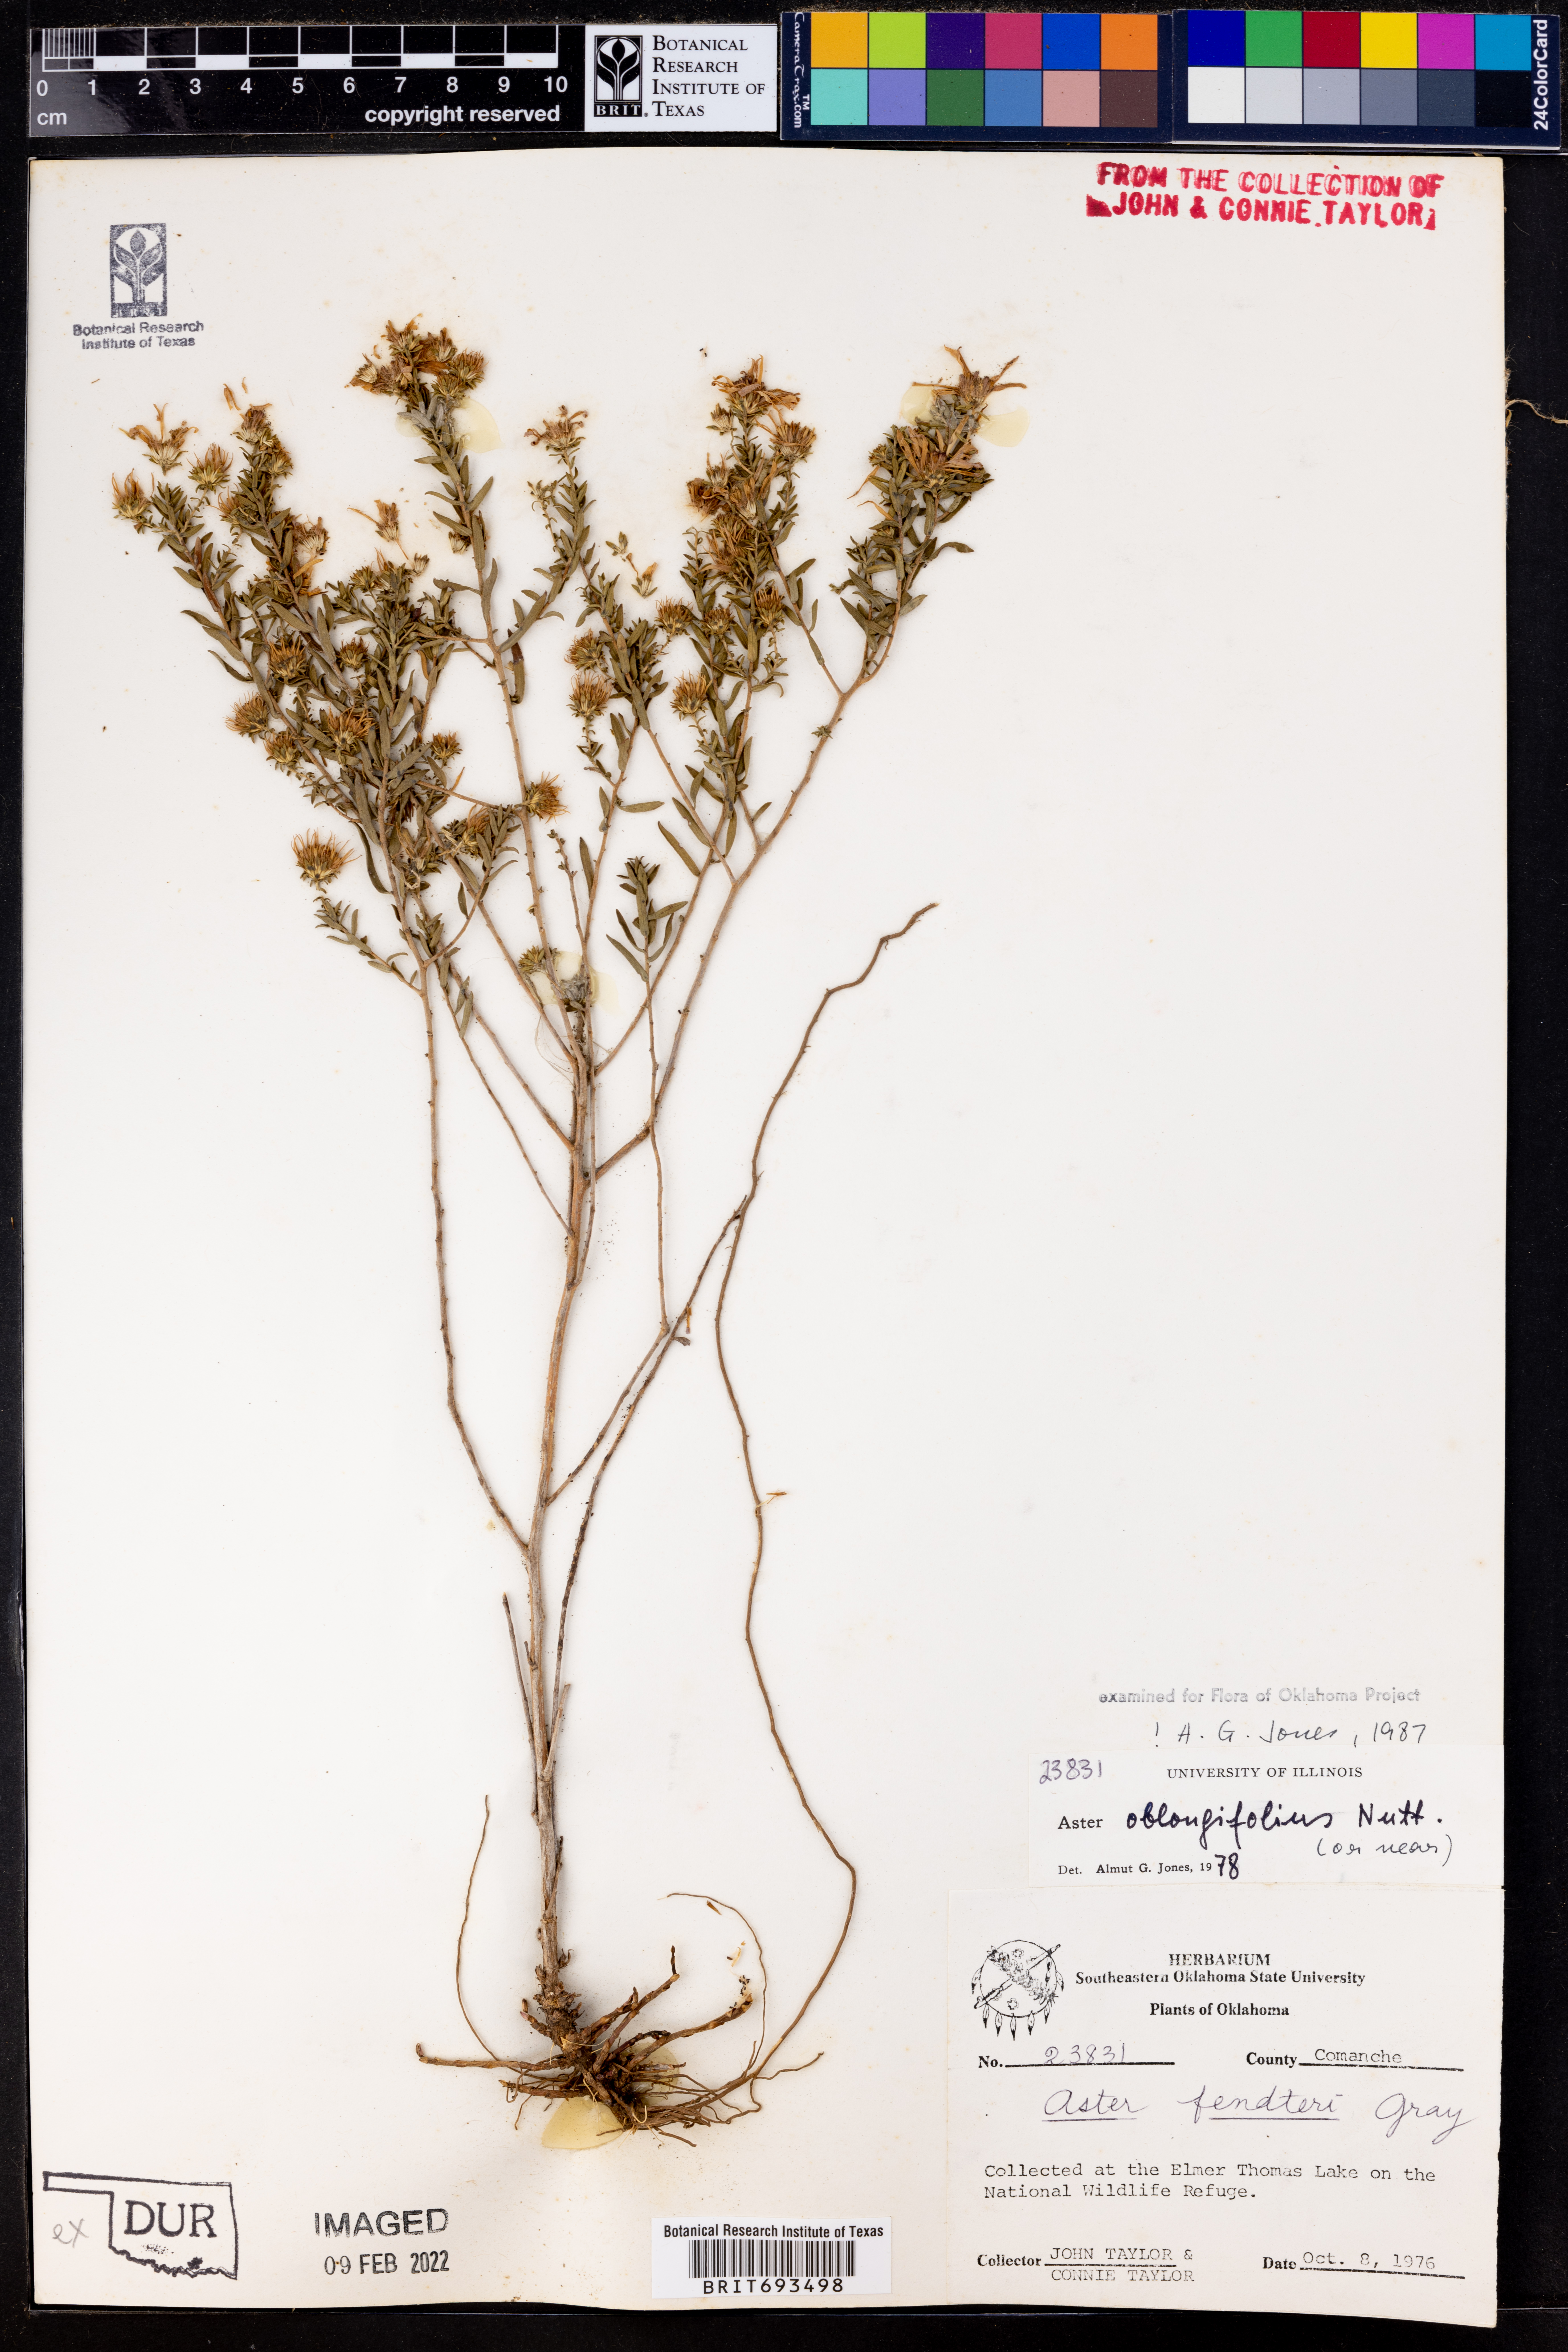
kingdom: Plantae
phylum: Tracheophyta
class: Magnoliopsida
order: Asterales
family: Asteraceae
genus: Symphyotrichum
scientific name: Symphyotrichum oblongifolium
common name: Aromatic aster
